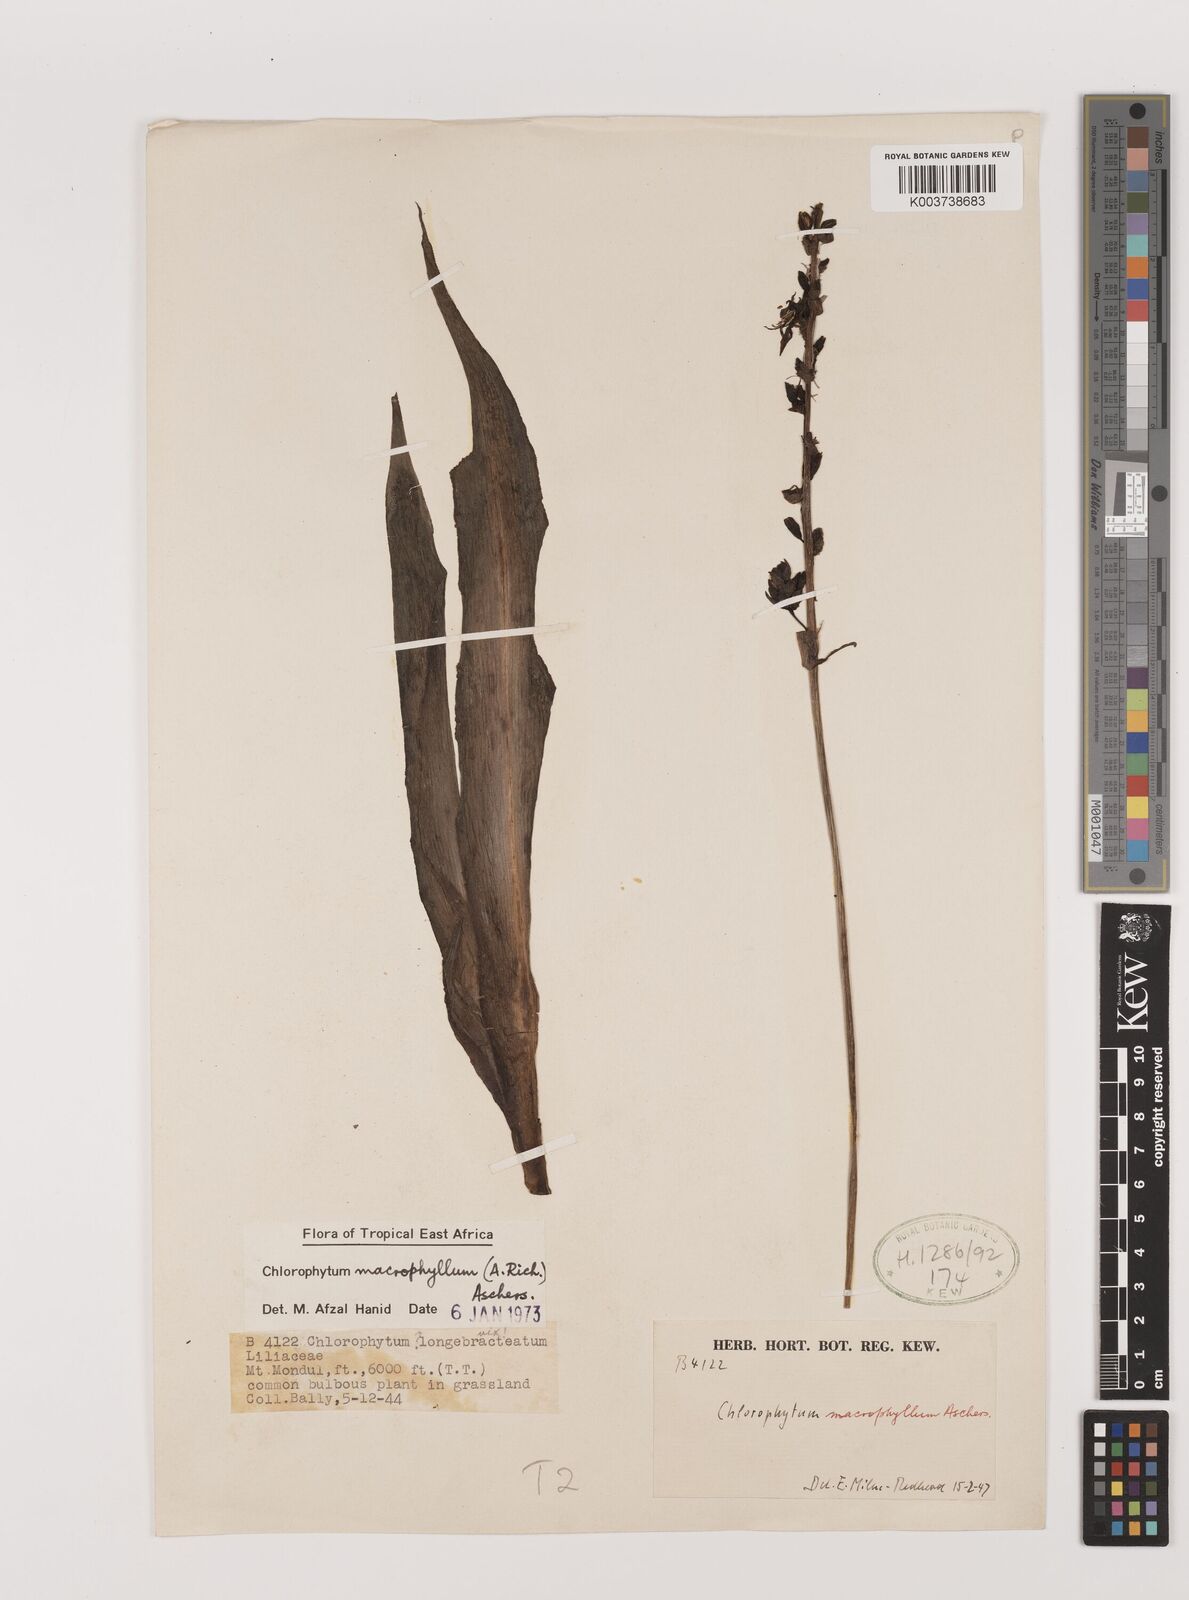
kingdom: Plantae
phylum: Tracheophyta
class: Liliopsida
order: Asparagales
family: Asparagaceae
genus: Chlorophytum
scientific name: Chlorophytum macrophyllum
